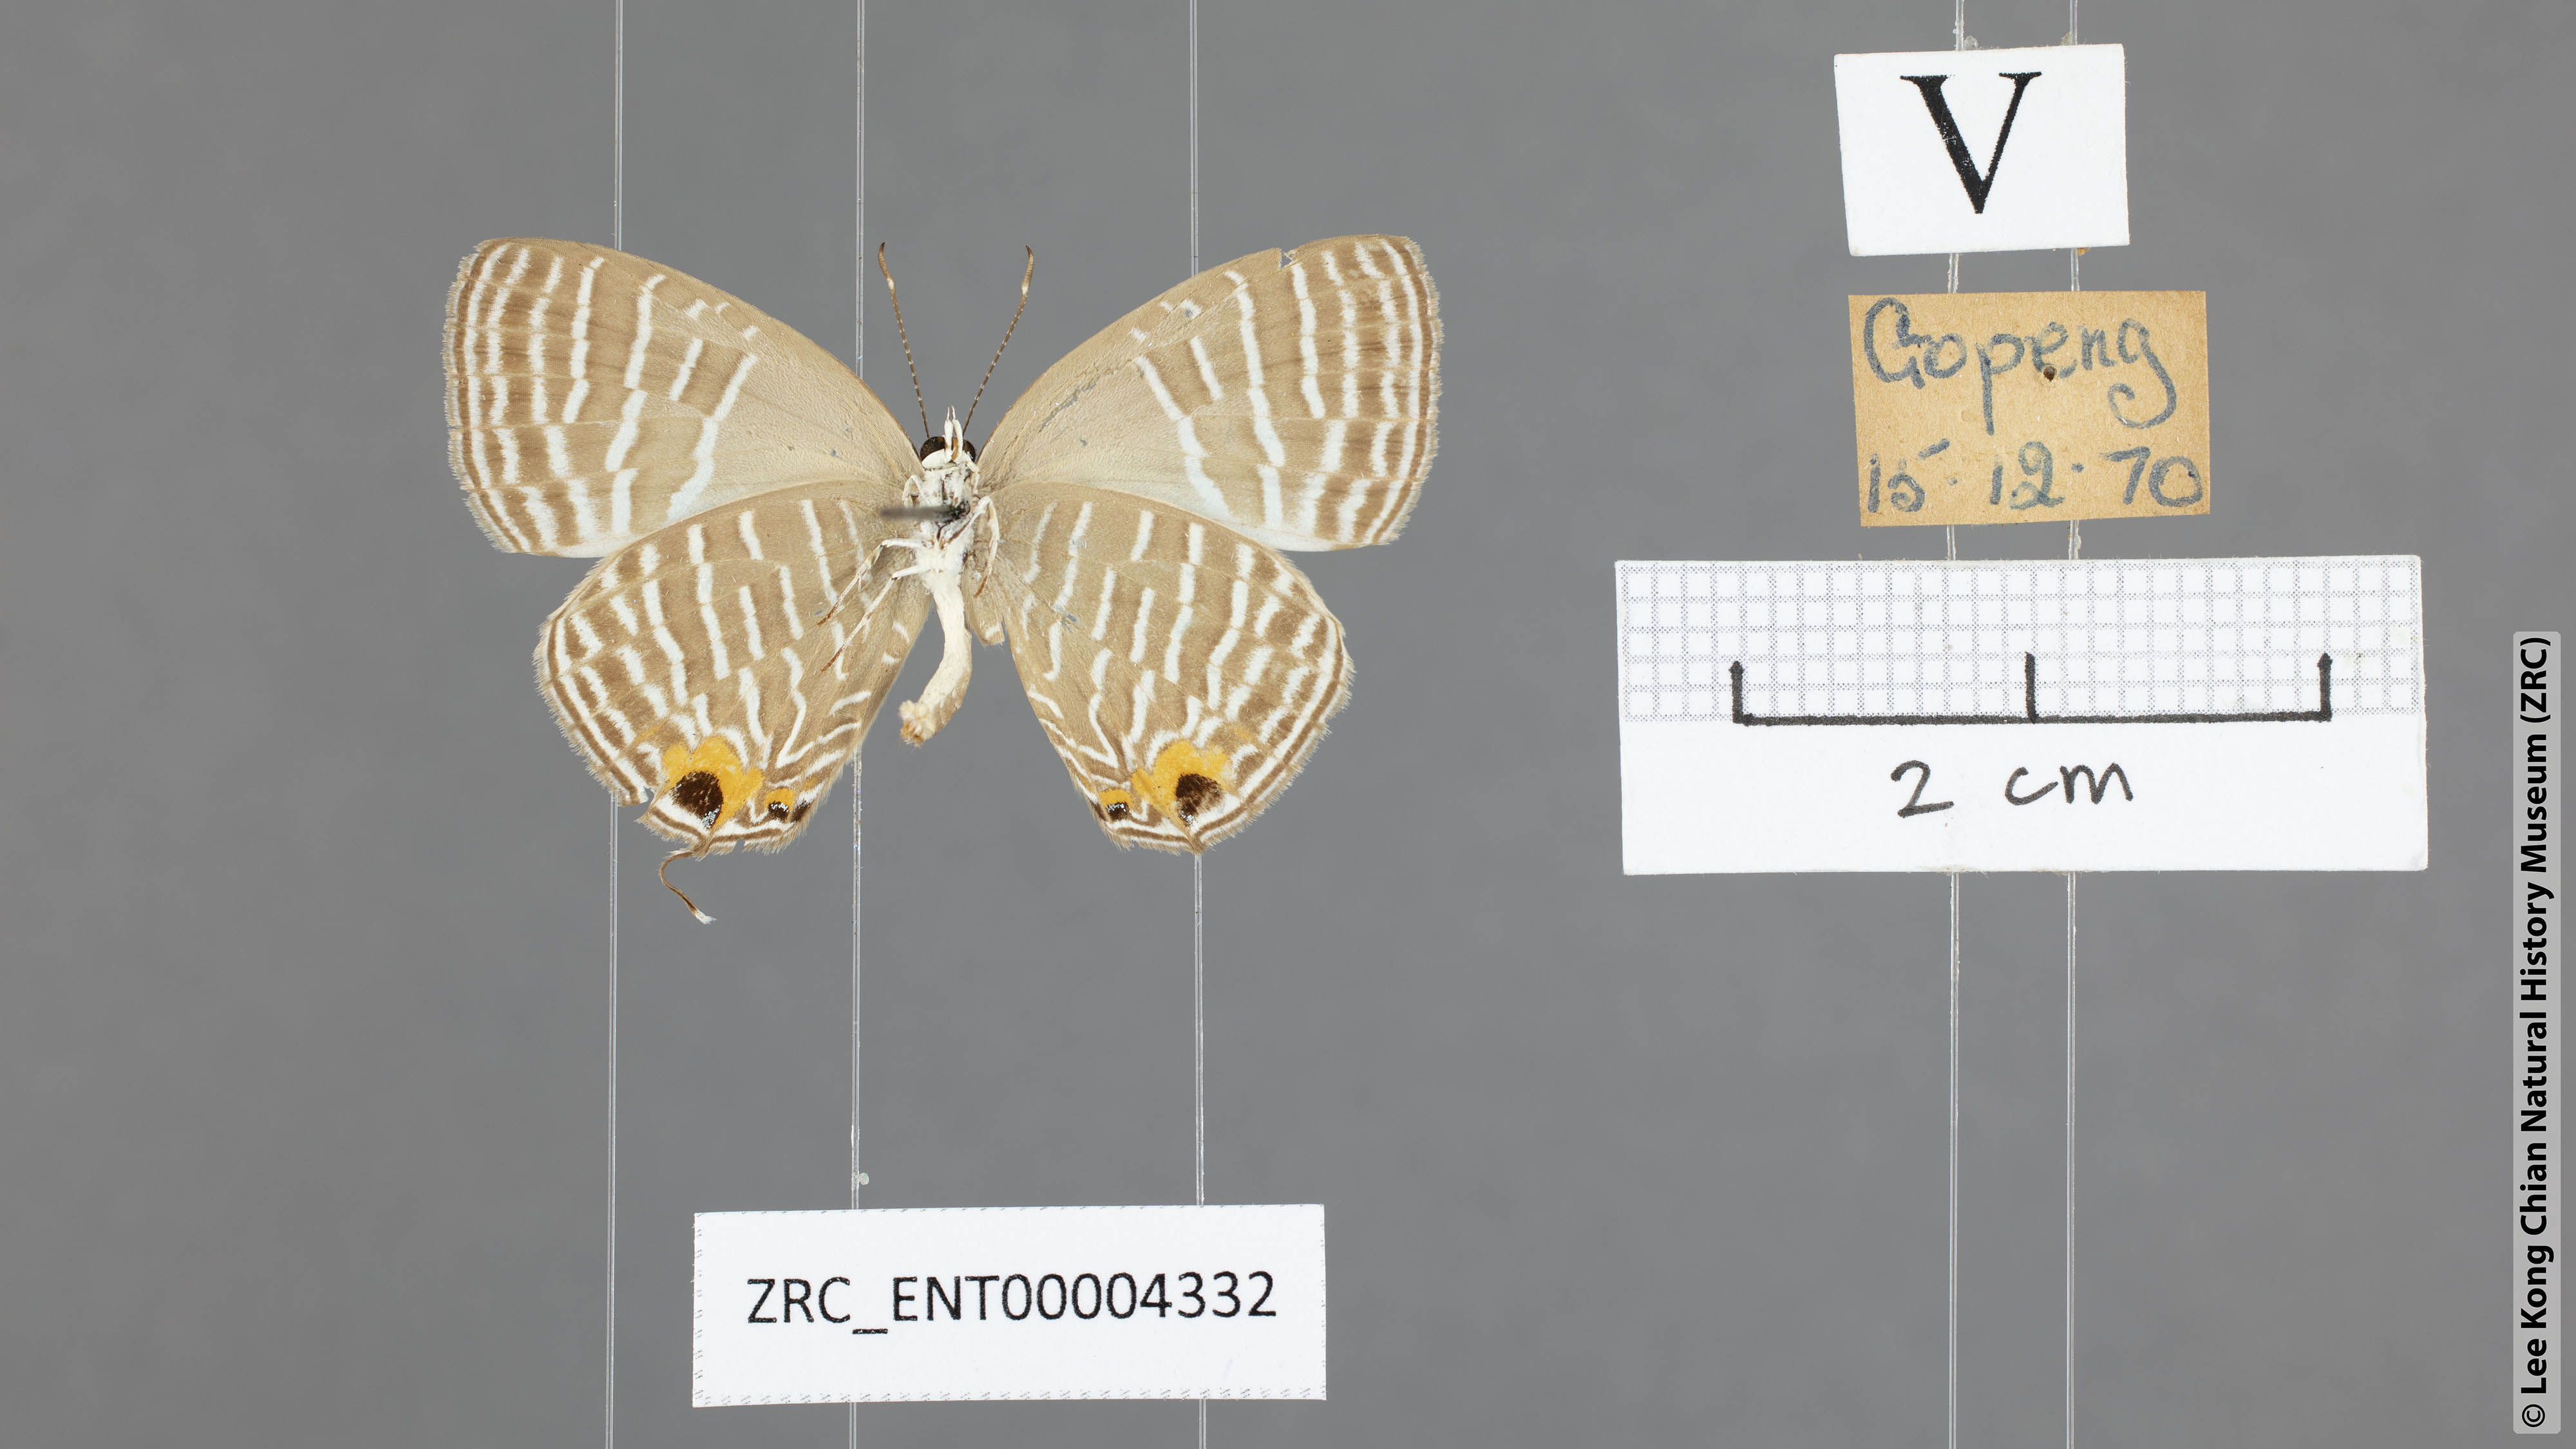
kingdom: Animalia
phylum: Arthropoda
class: Insecta
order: Lepidoptera
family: Lycaenidae
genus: Jamides
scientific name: Jamides celeno
